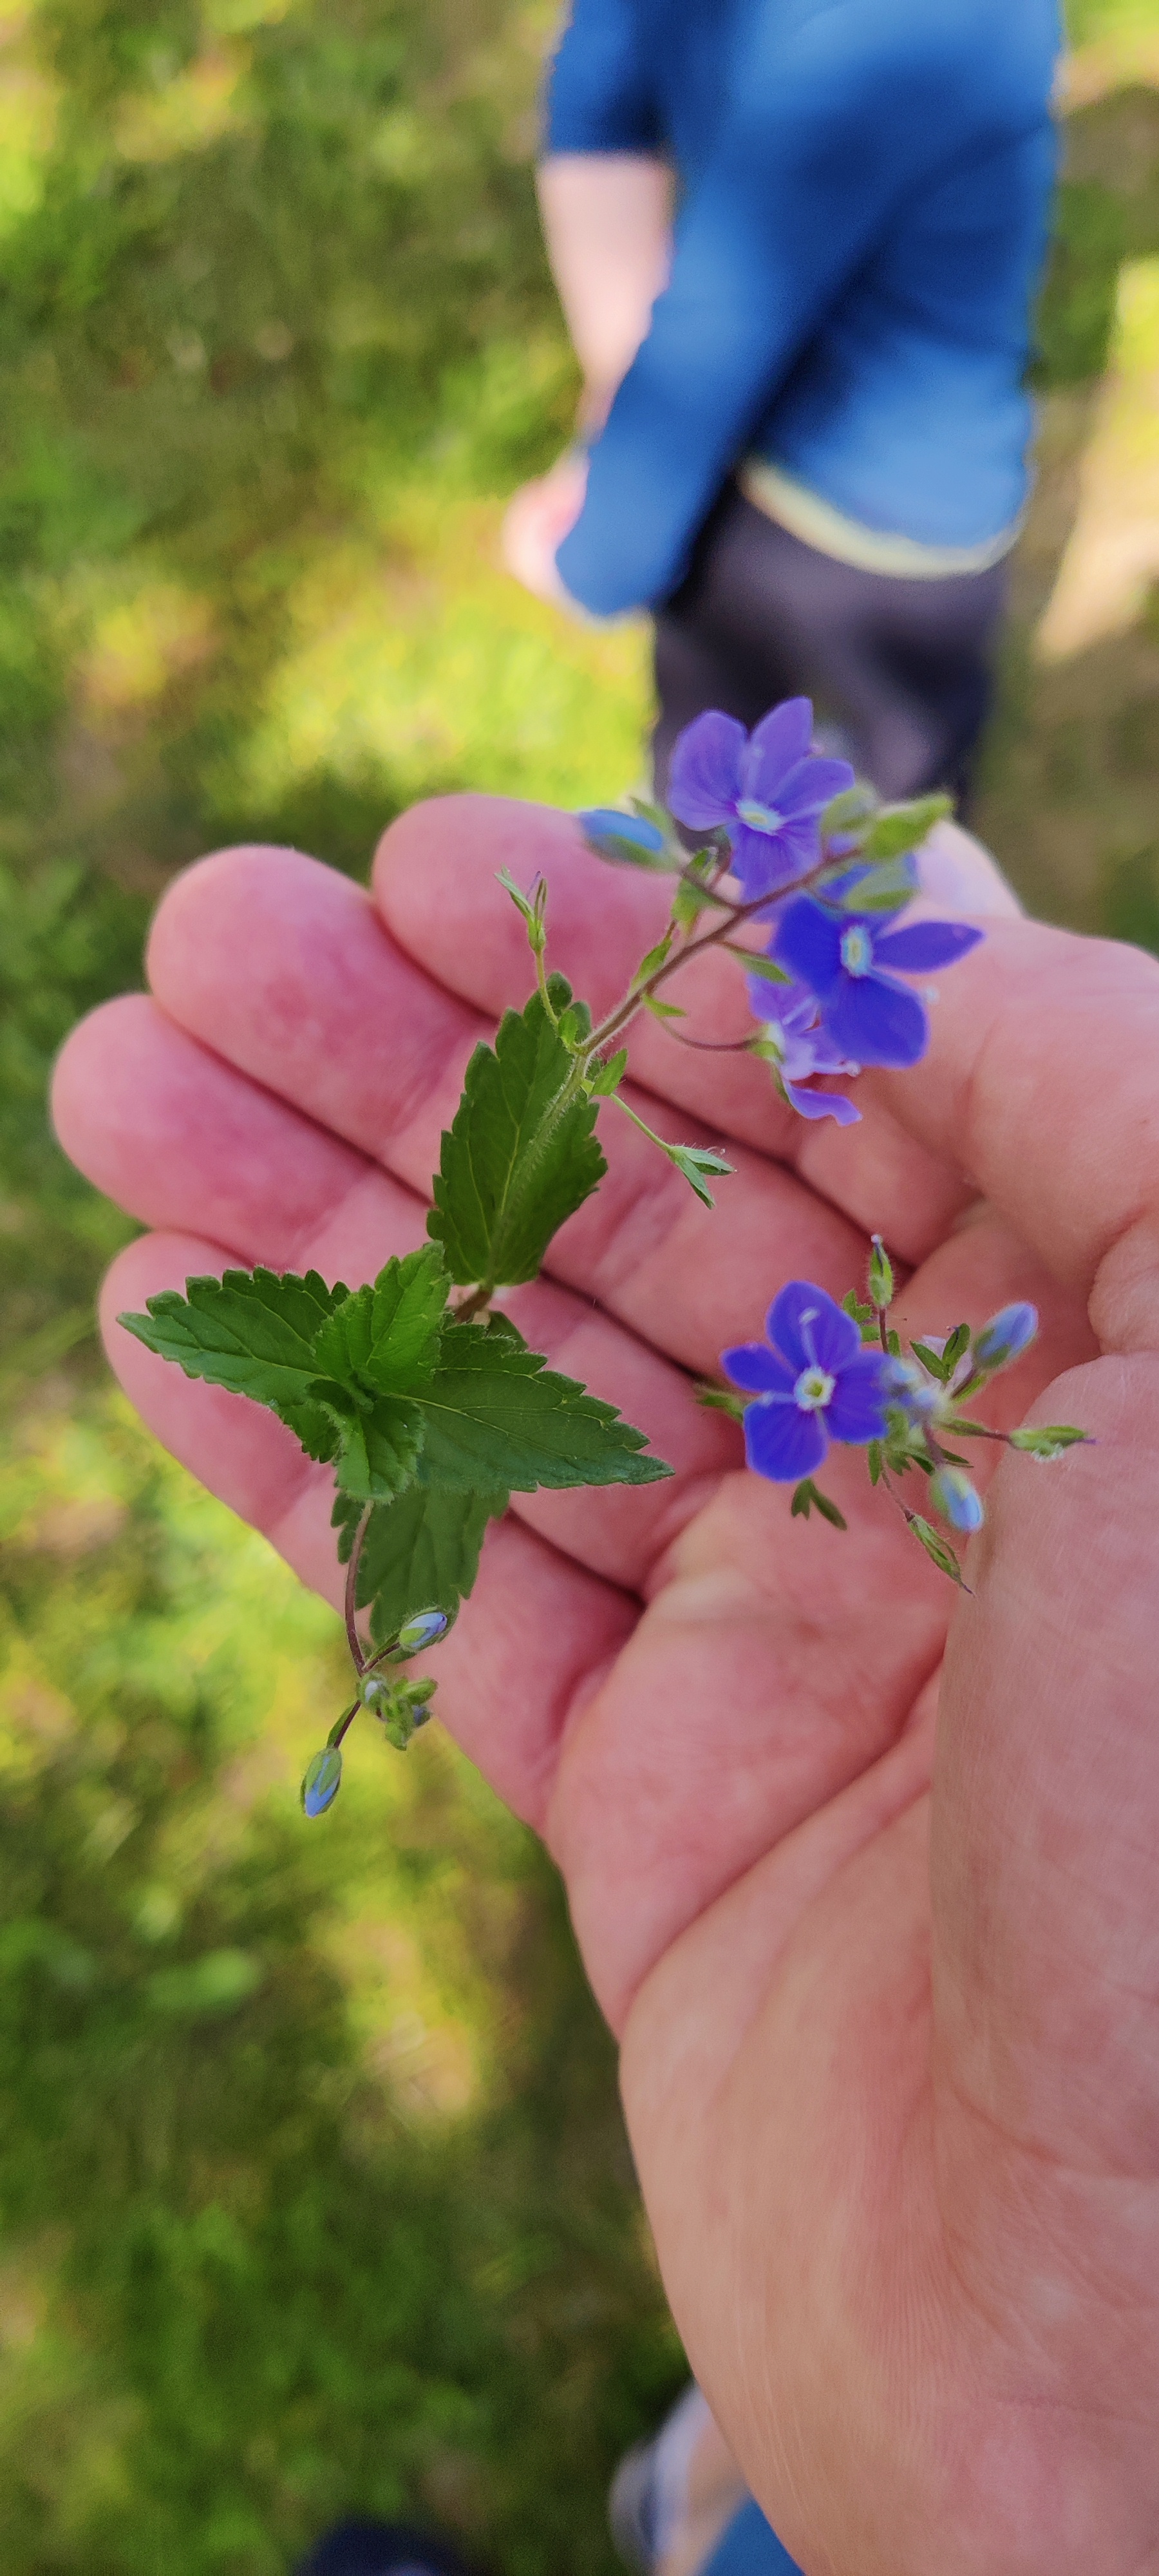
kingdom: Plantae
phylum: Tracheophyta
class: Magnoliopsida
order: Lamiales
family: Plantaginaceae
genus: Veronica
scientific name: Veronica chamaedrys
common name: Tveskægget ærenpris
